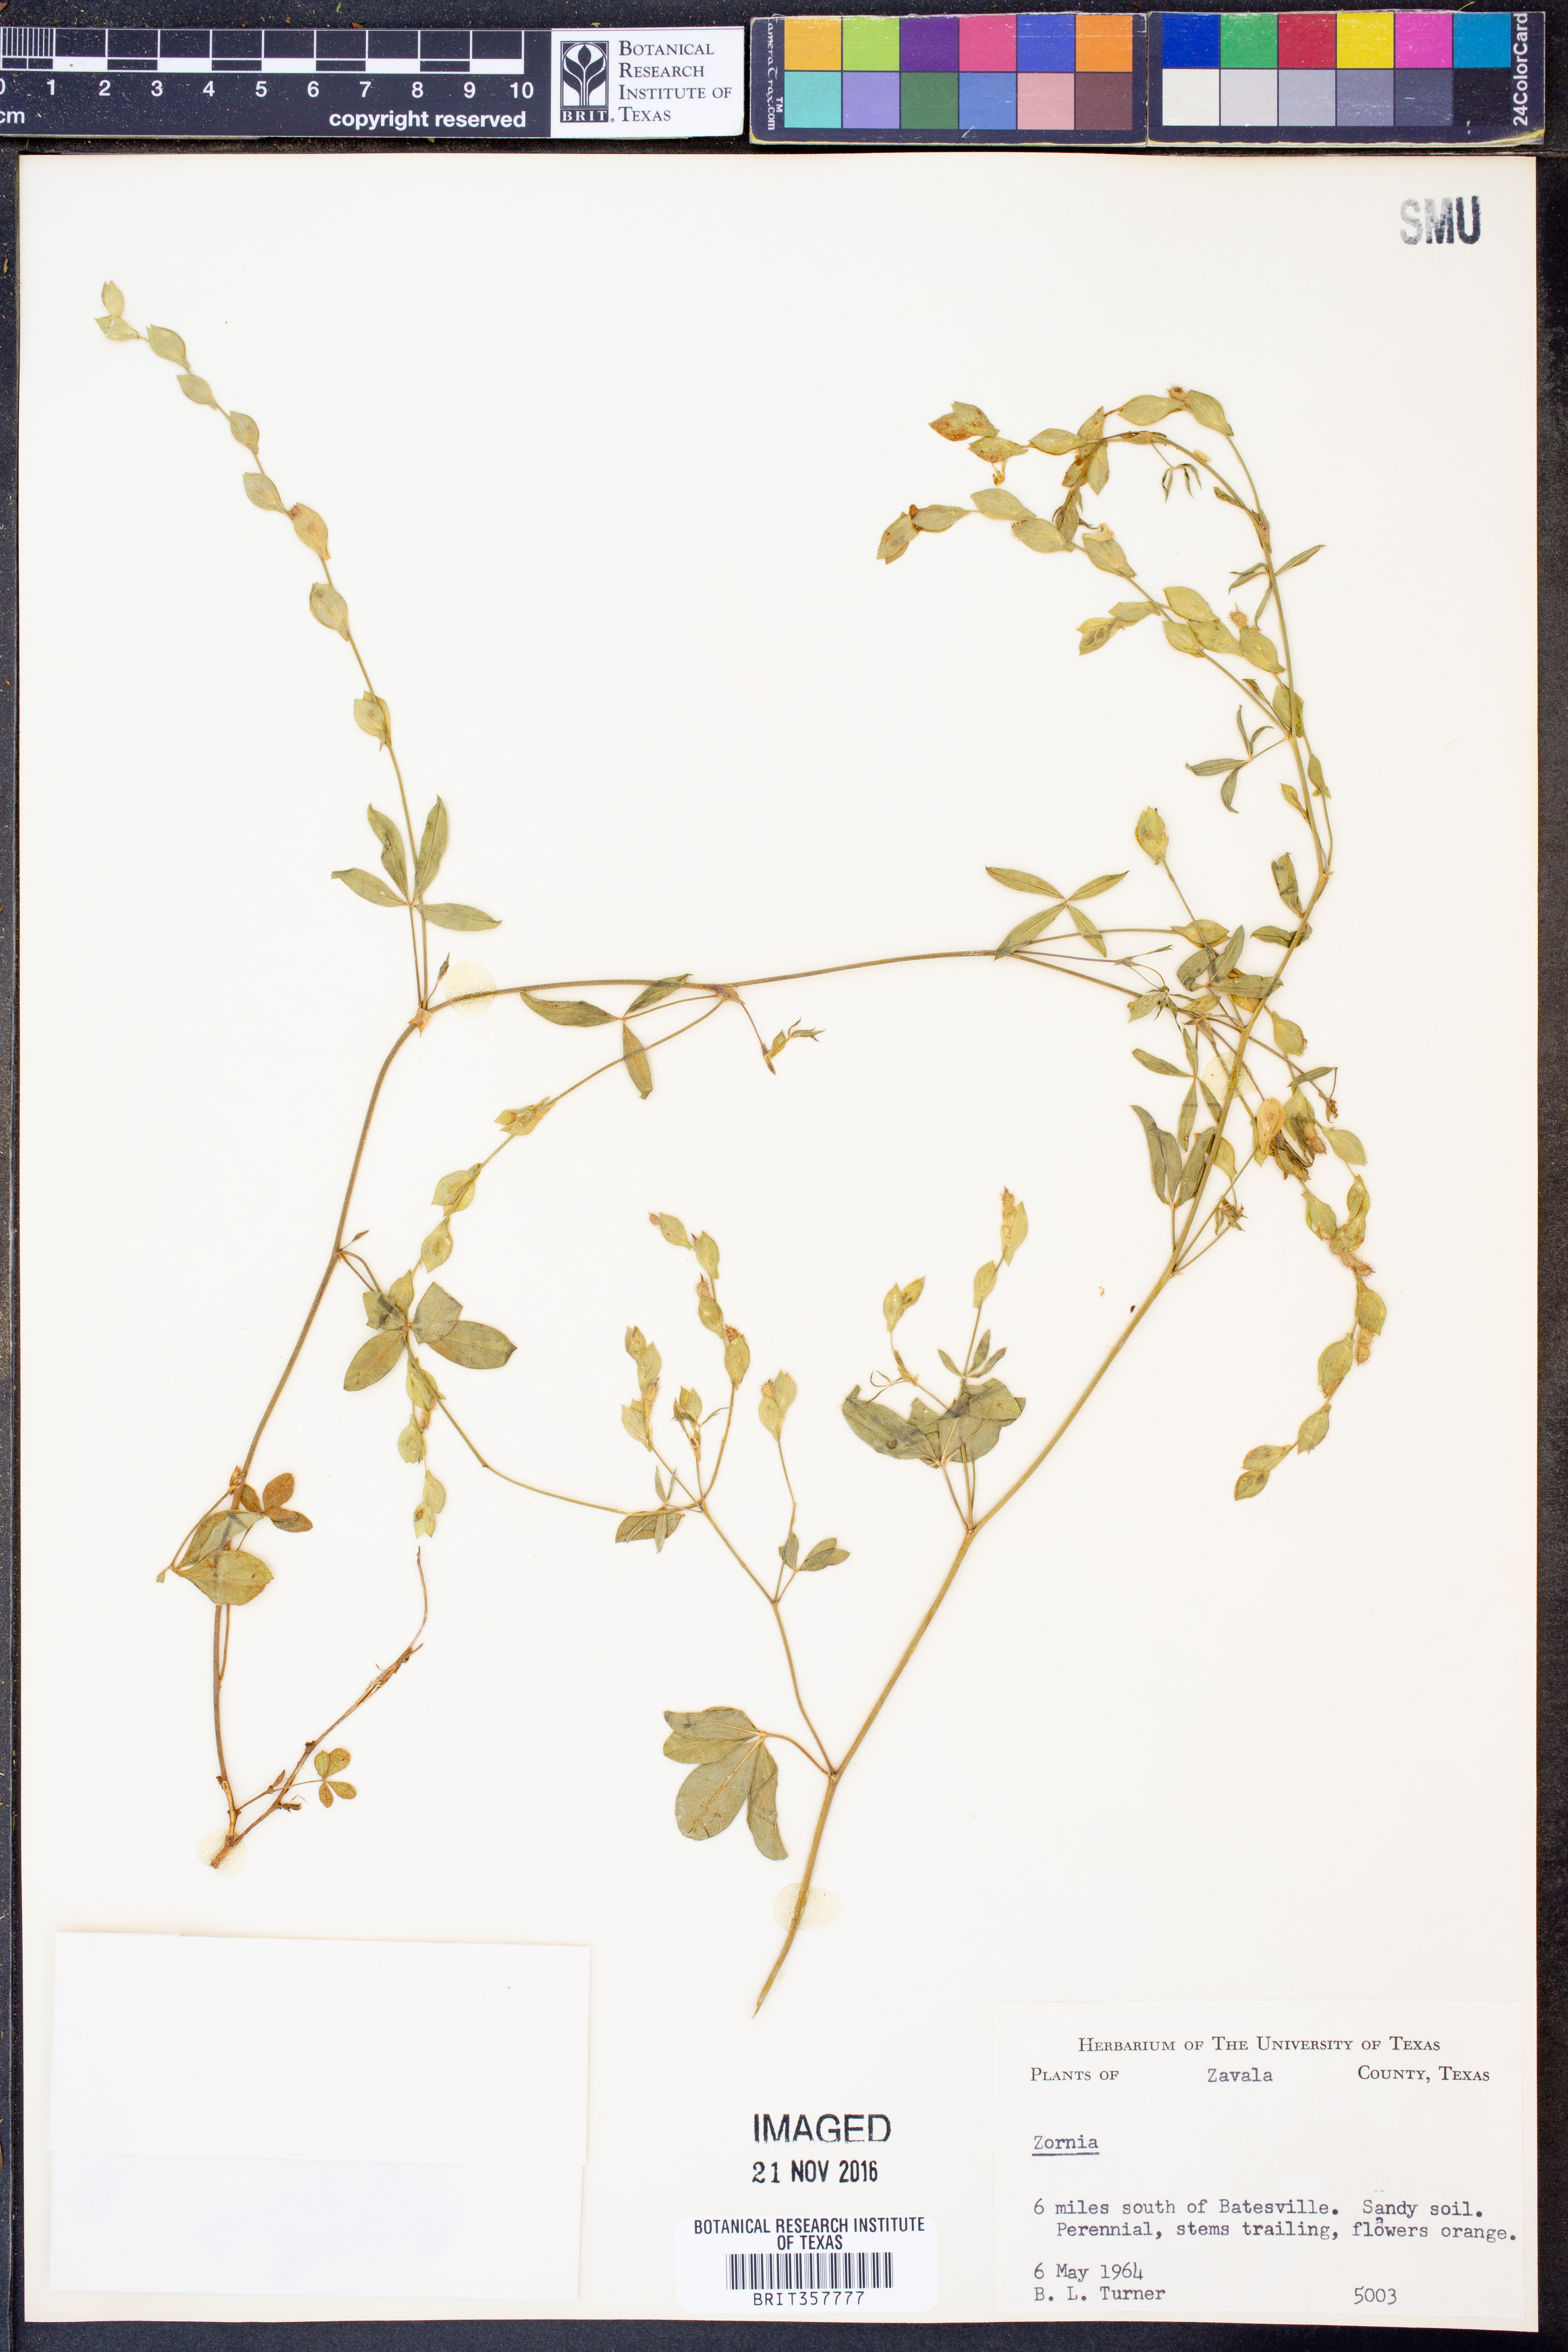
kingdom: Plantae
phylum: Tracheophyta
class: Magnoliopsida
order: Fabales
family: Fabaceae
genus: Zornia
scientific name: Zornia
